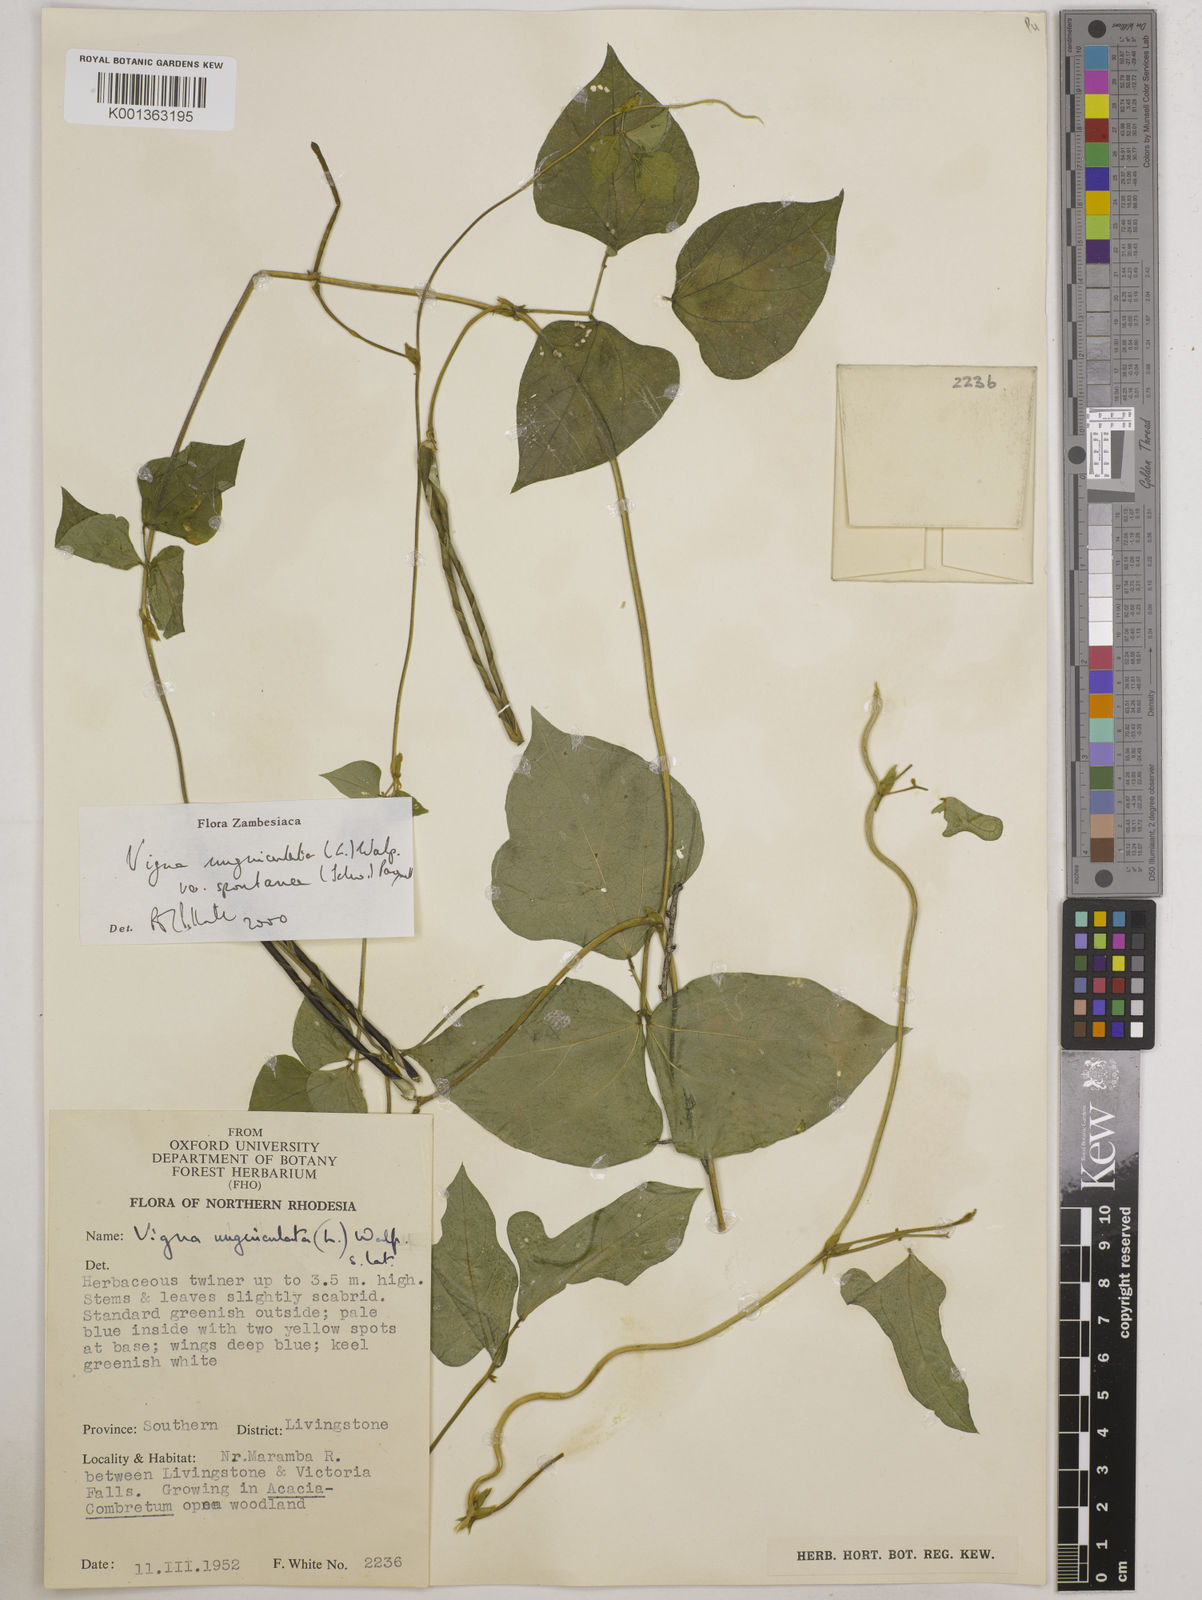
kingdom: Plantae
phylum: Tracheophyta
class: Magnoliopsida
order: Fabales
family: Fabaceae
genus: Vigna
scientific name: Vigna unguiculata
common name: Cowpea
